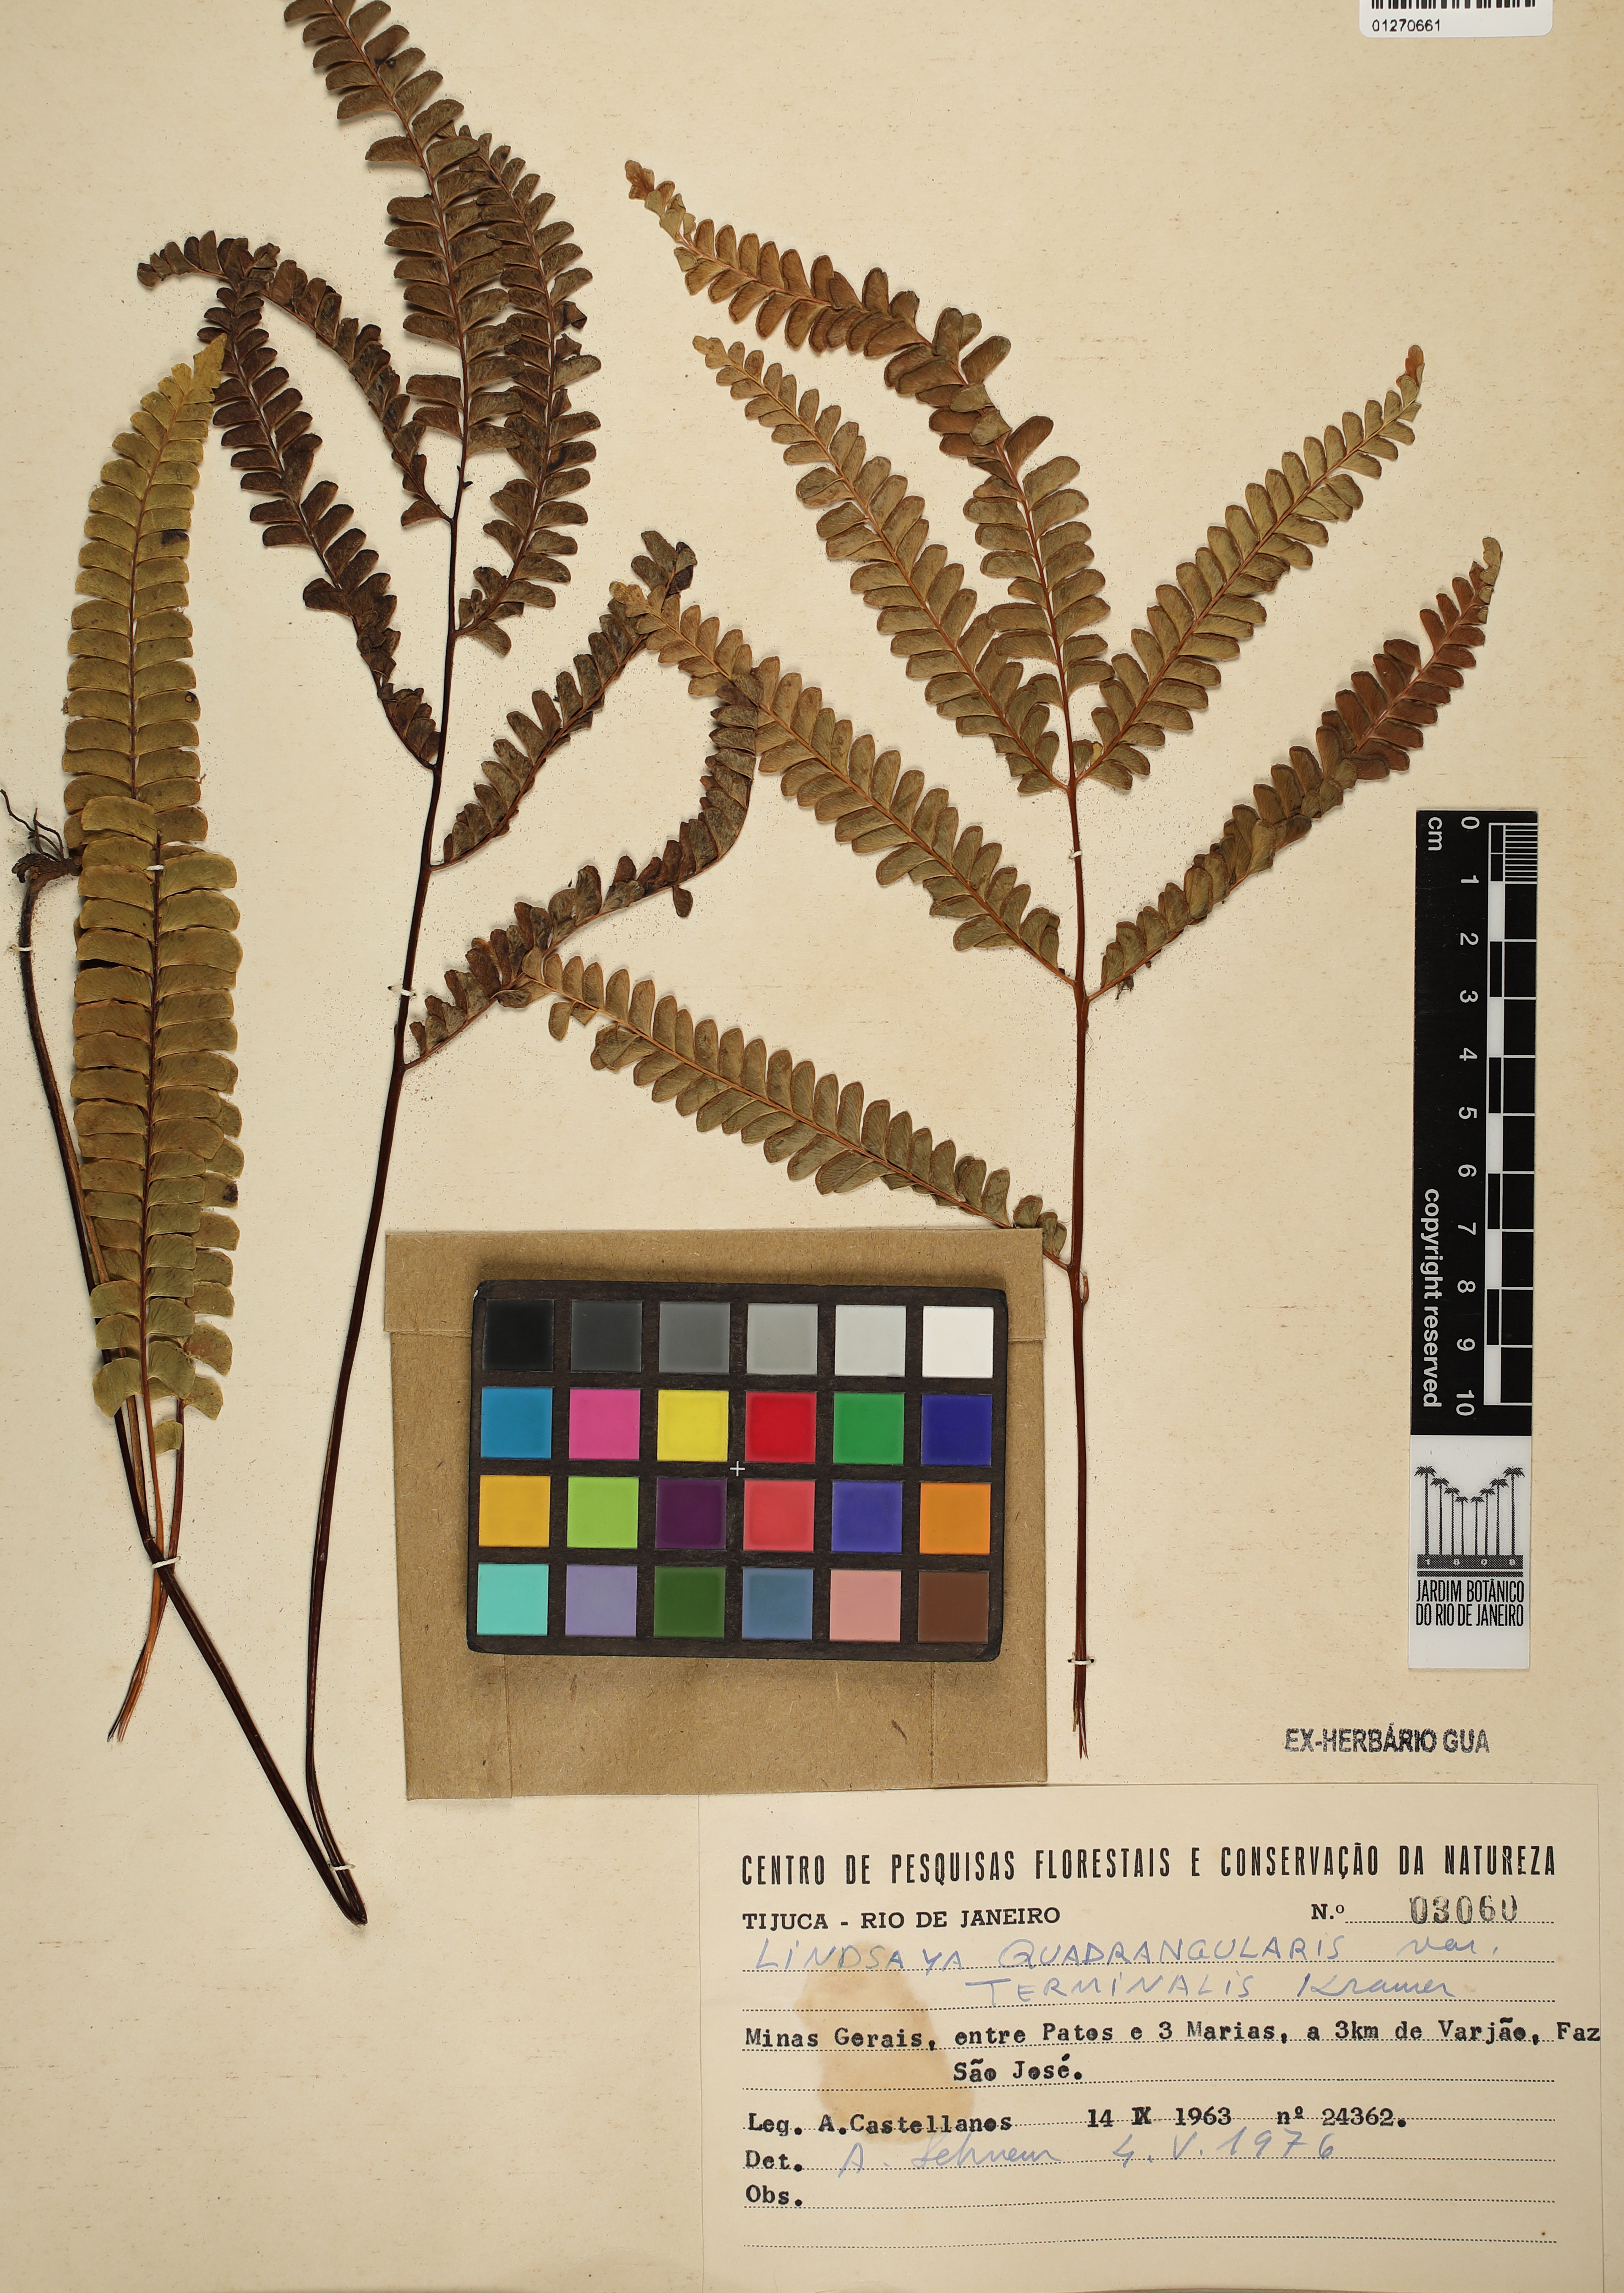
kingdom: Plantae
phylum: Tracheophyta
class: Polypodiopsida
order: Polypodiales
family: Lindsaeaceae
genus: Lindsaea
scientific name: Lindsaea terminalis
